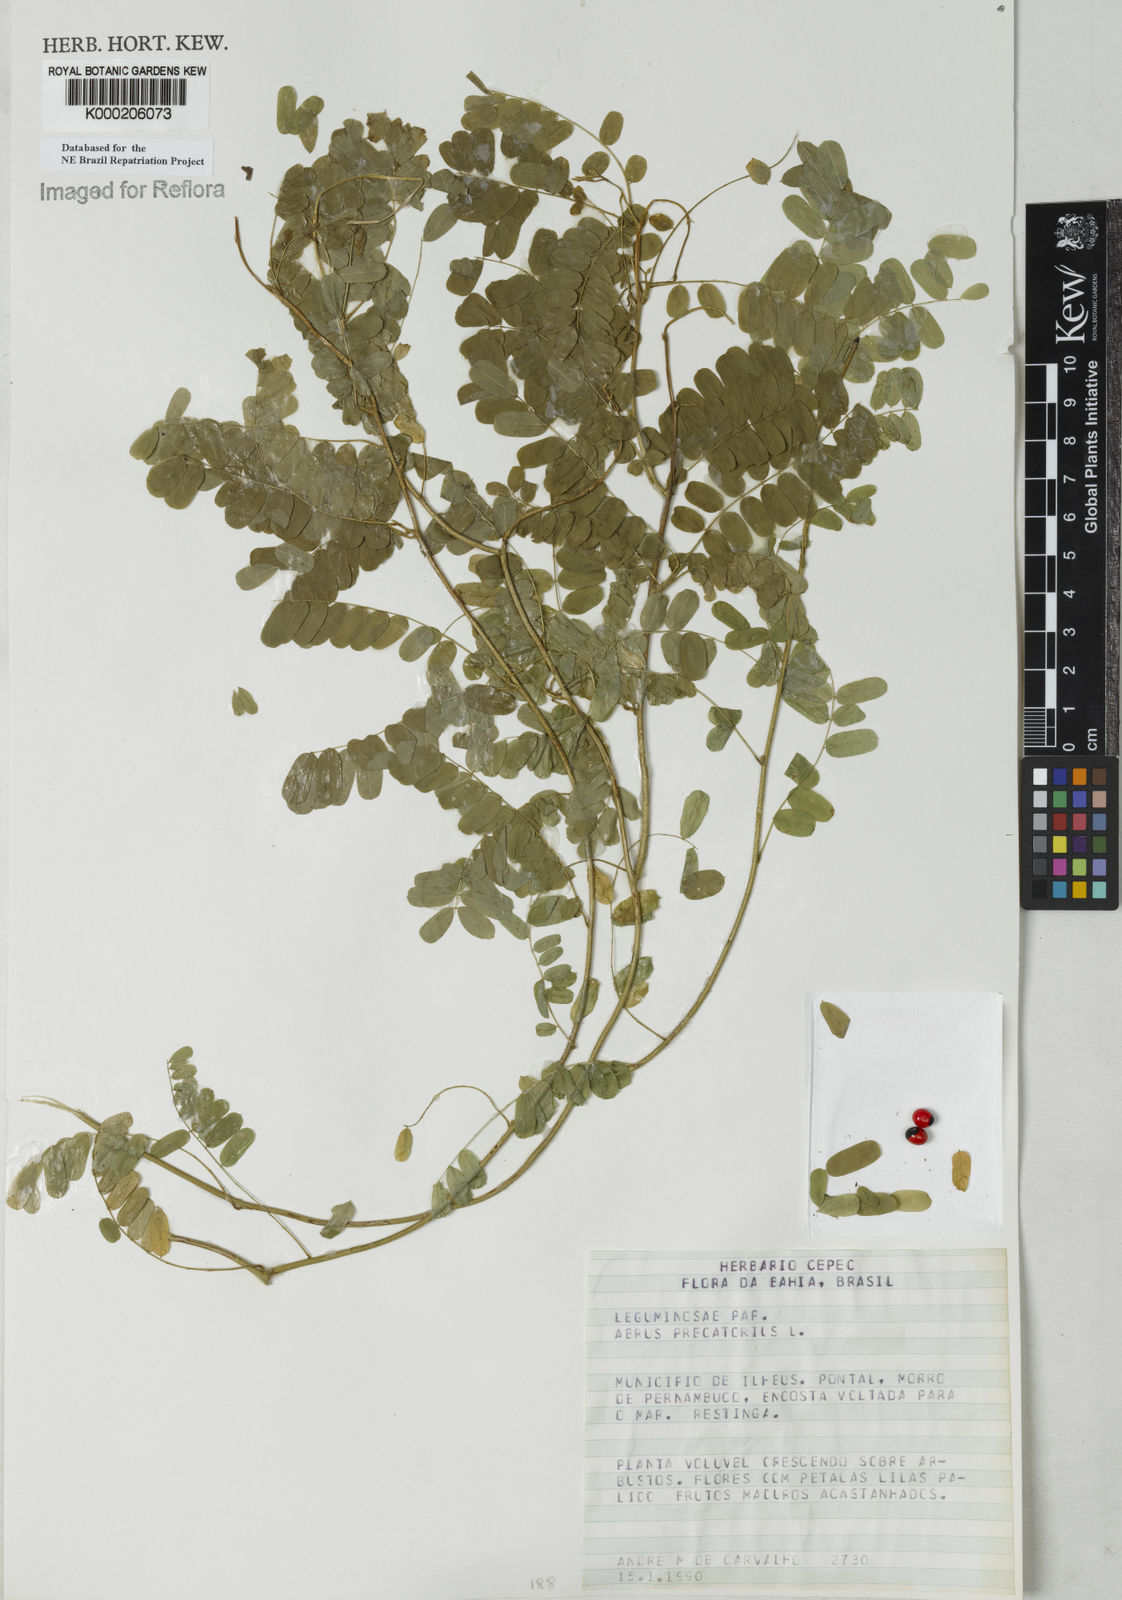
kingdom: Plantae
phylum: Tracheophyta
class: Magnoliopsida
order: Fabales
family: Fabaceae
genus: Abrus
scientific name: Abrus precatorius
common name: Rosarypea
